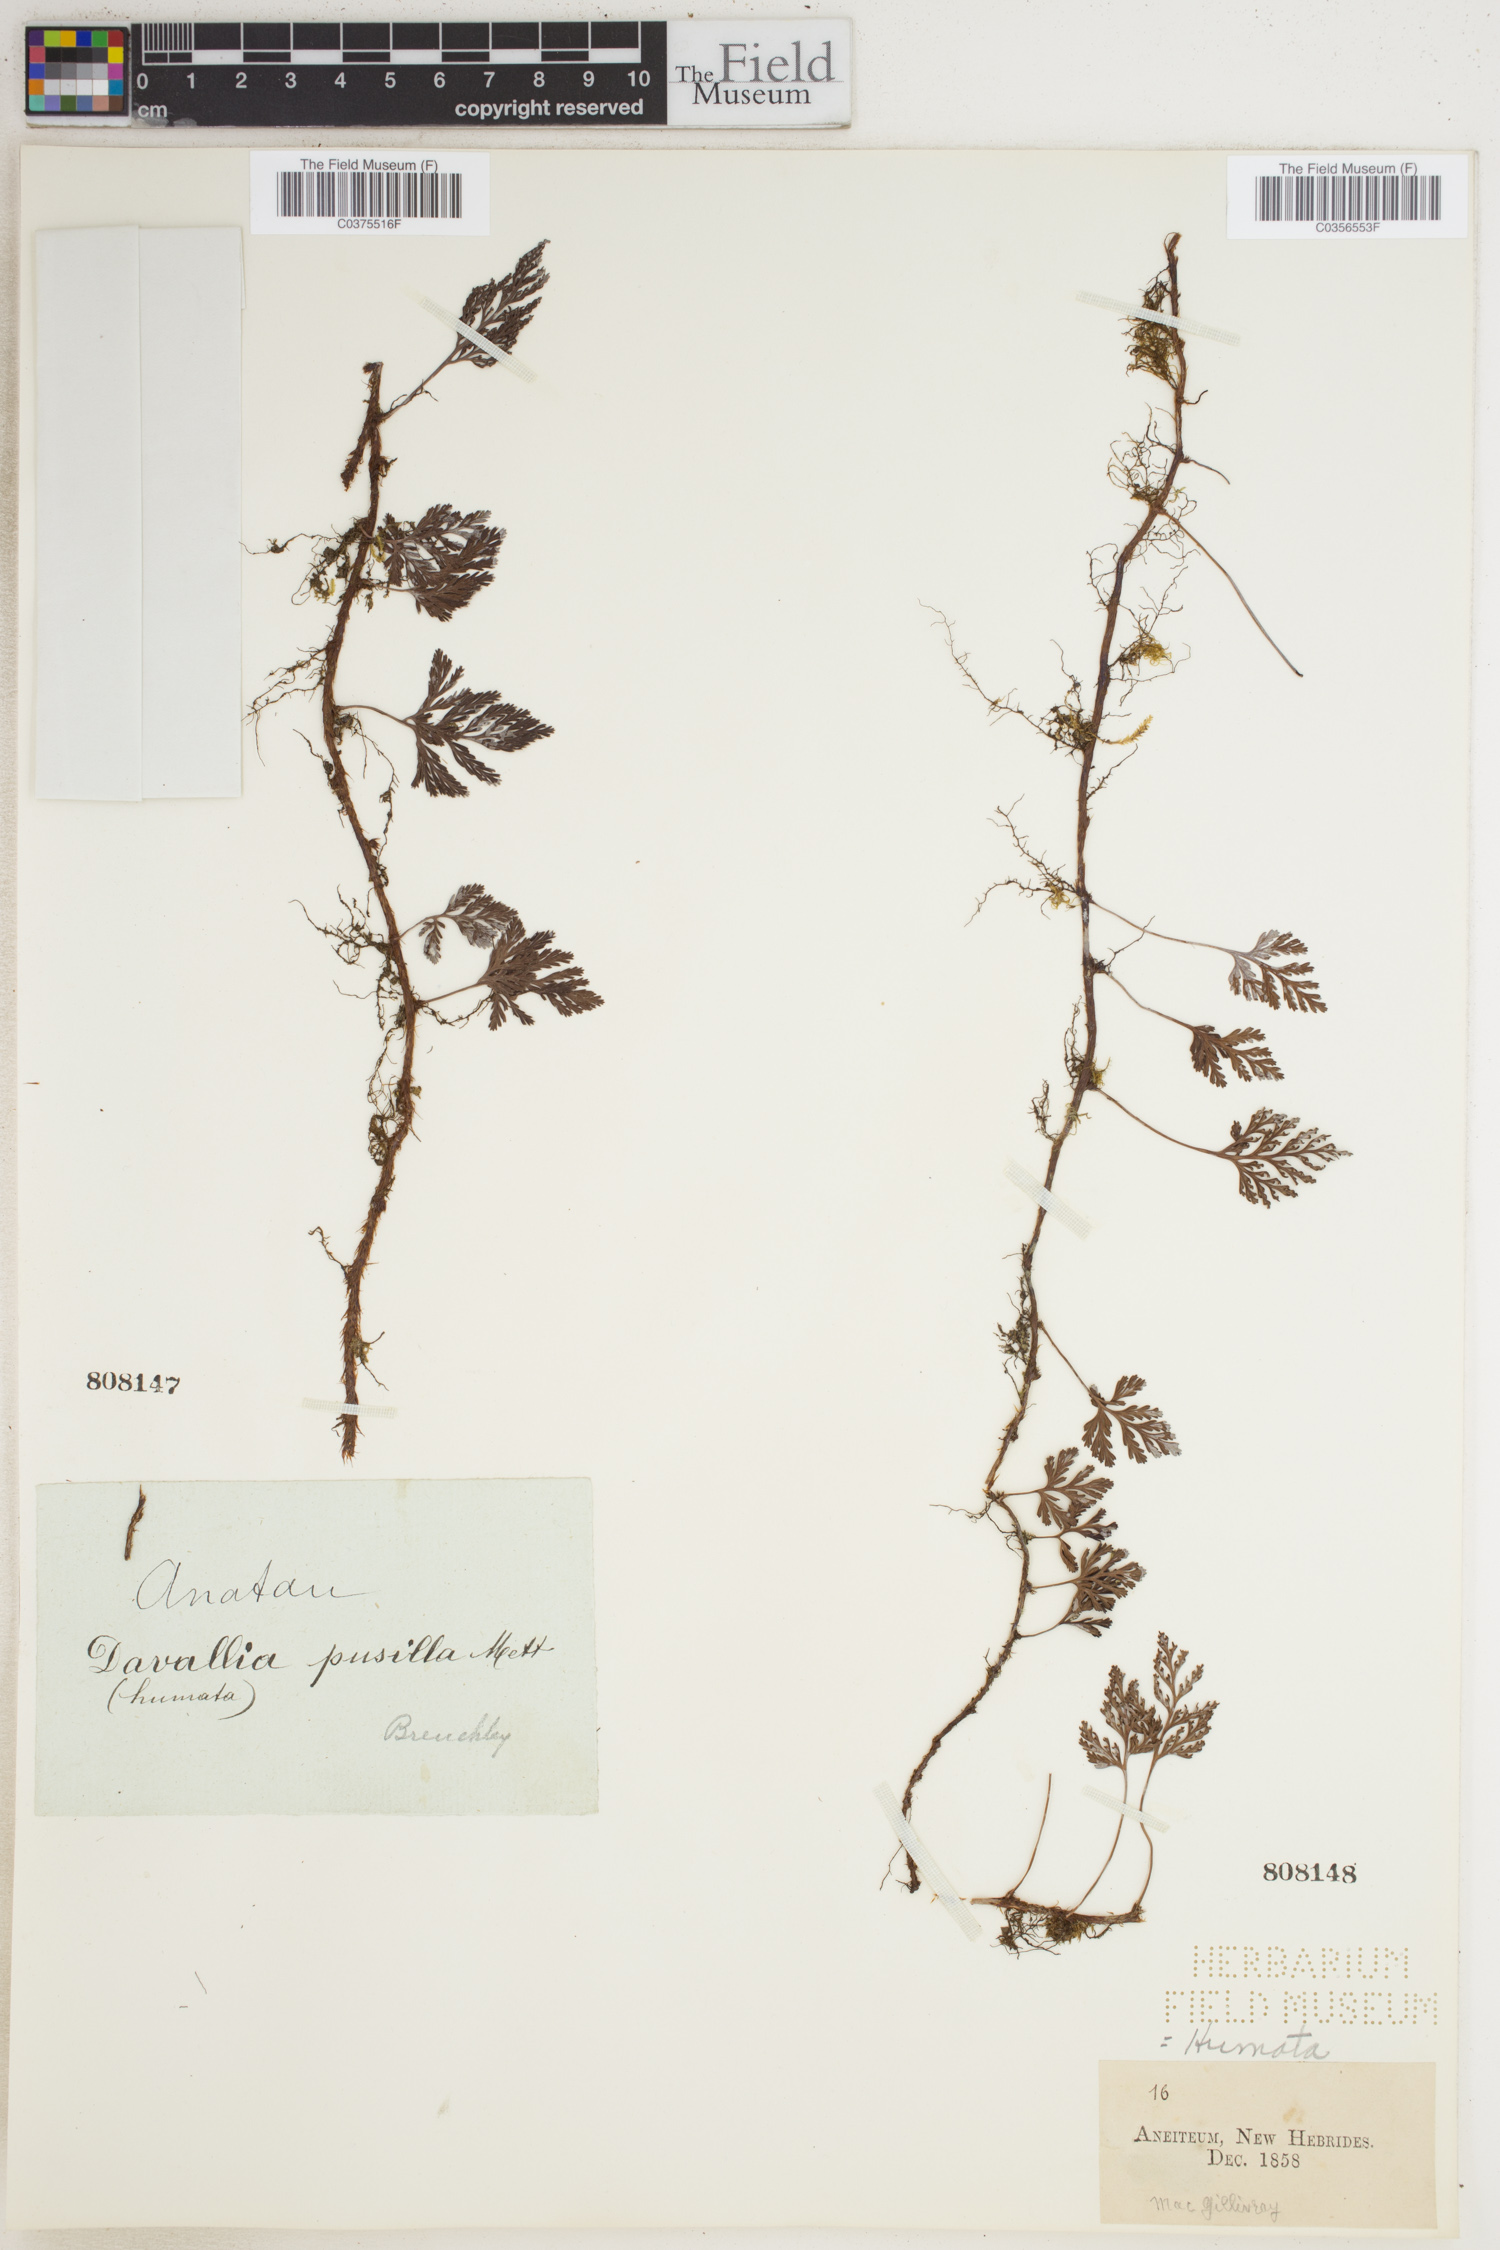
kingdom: Plantae
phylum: Tracheophyta
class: Polypodiopsida
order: Polypodiales
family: Davalliaceae
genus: Davallia
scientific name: Davallia
